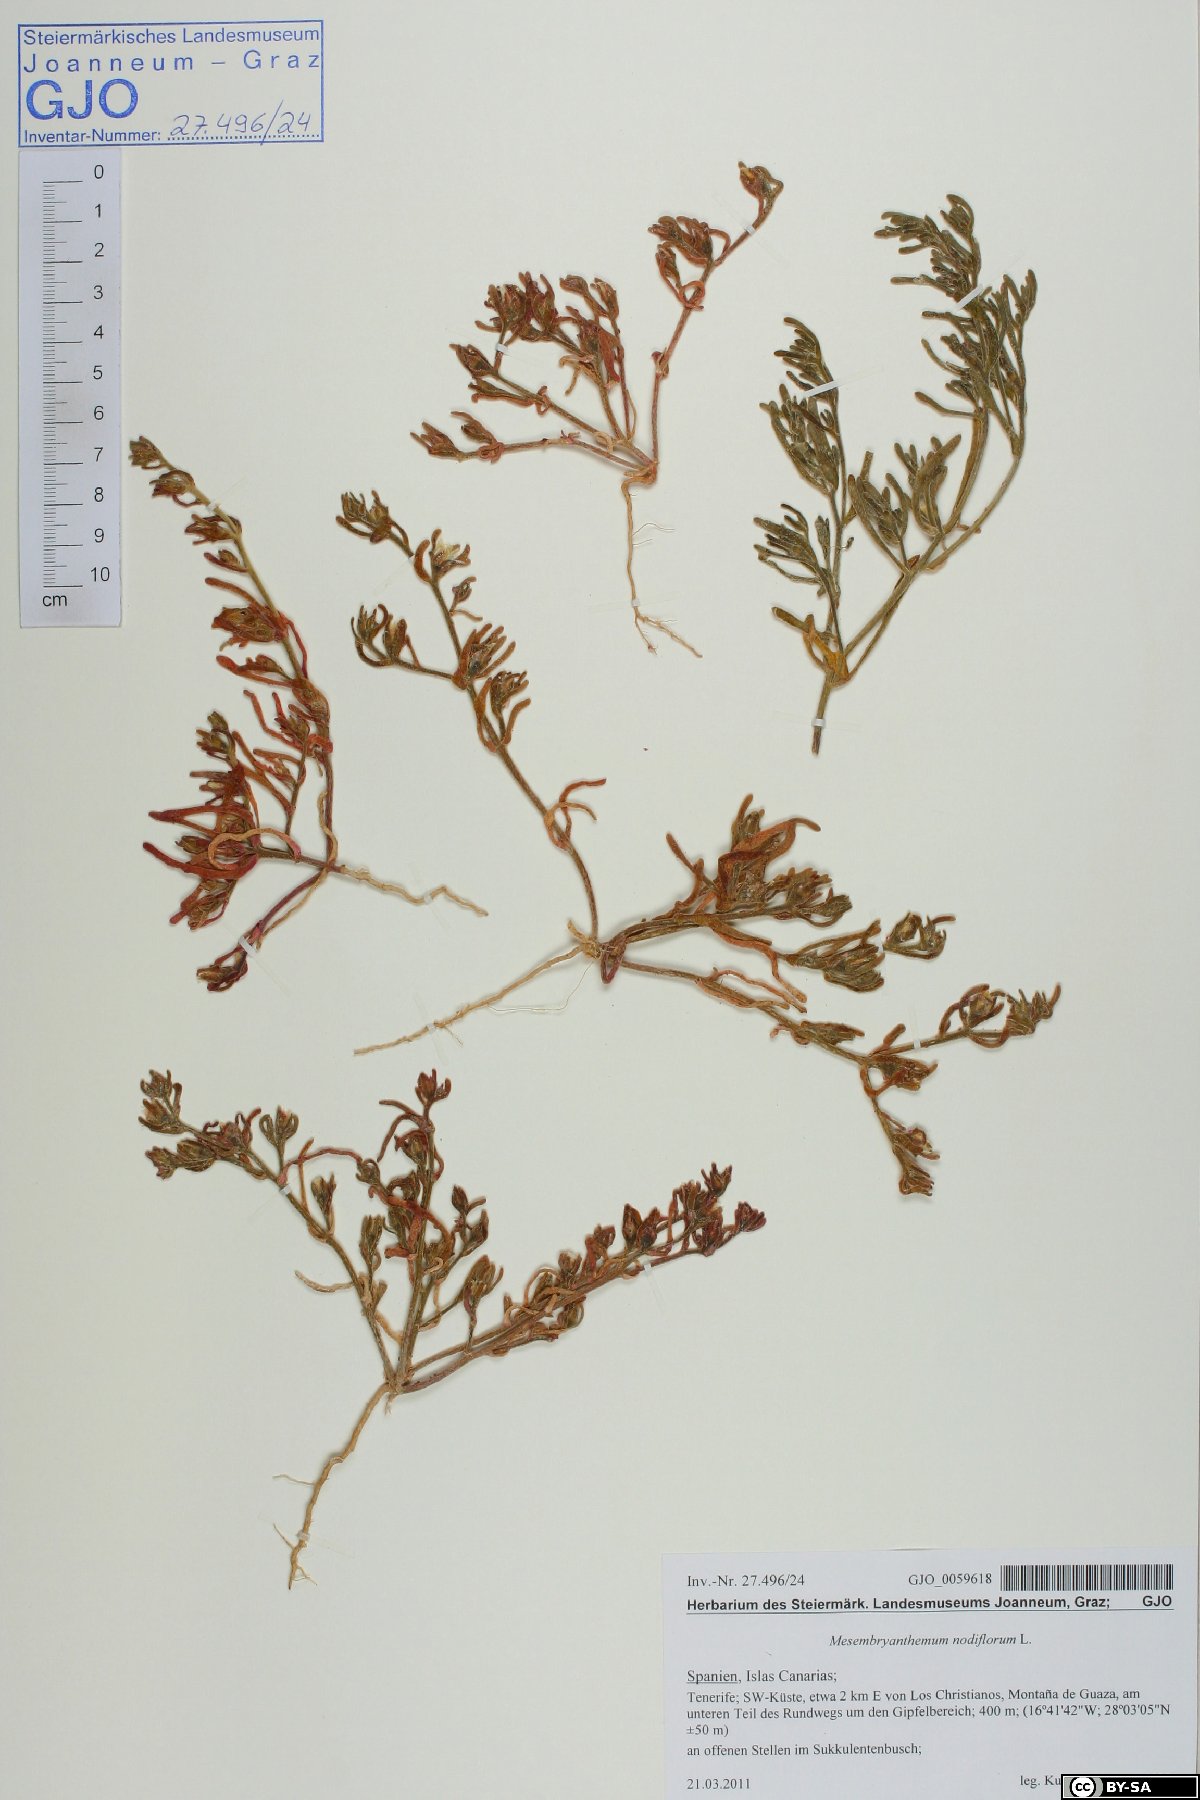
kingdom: Plantae
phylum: Tracheophyta
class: Magnoliopsida
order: Caryophyllales
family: Aizoaceae
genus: Mesembryanthemum
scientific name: Mesembryanthemum nodiflorum
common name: Slenderleaf iceplant
